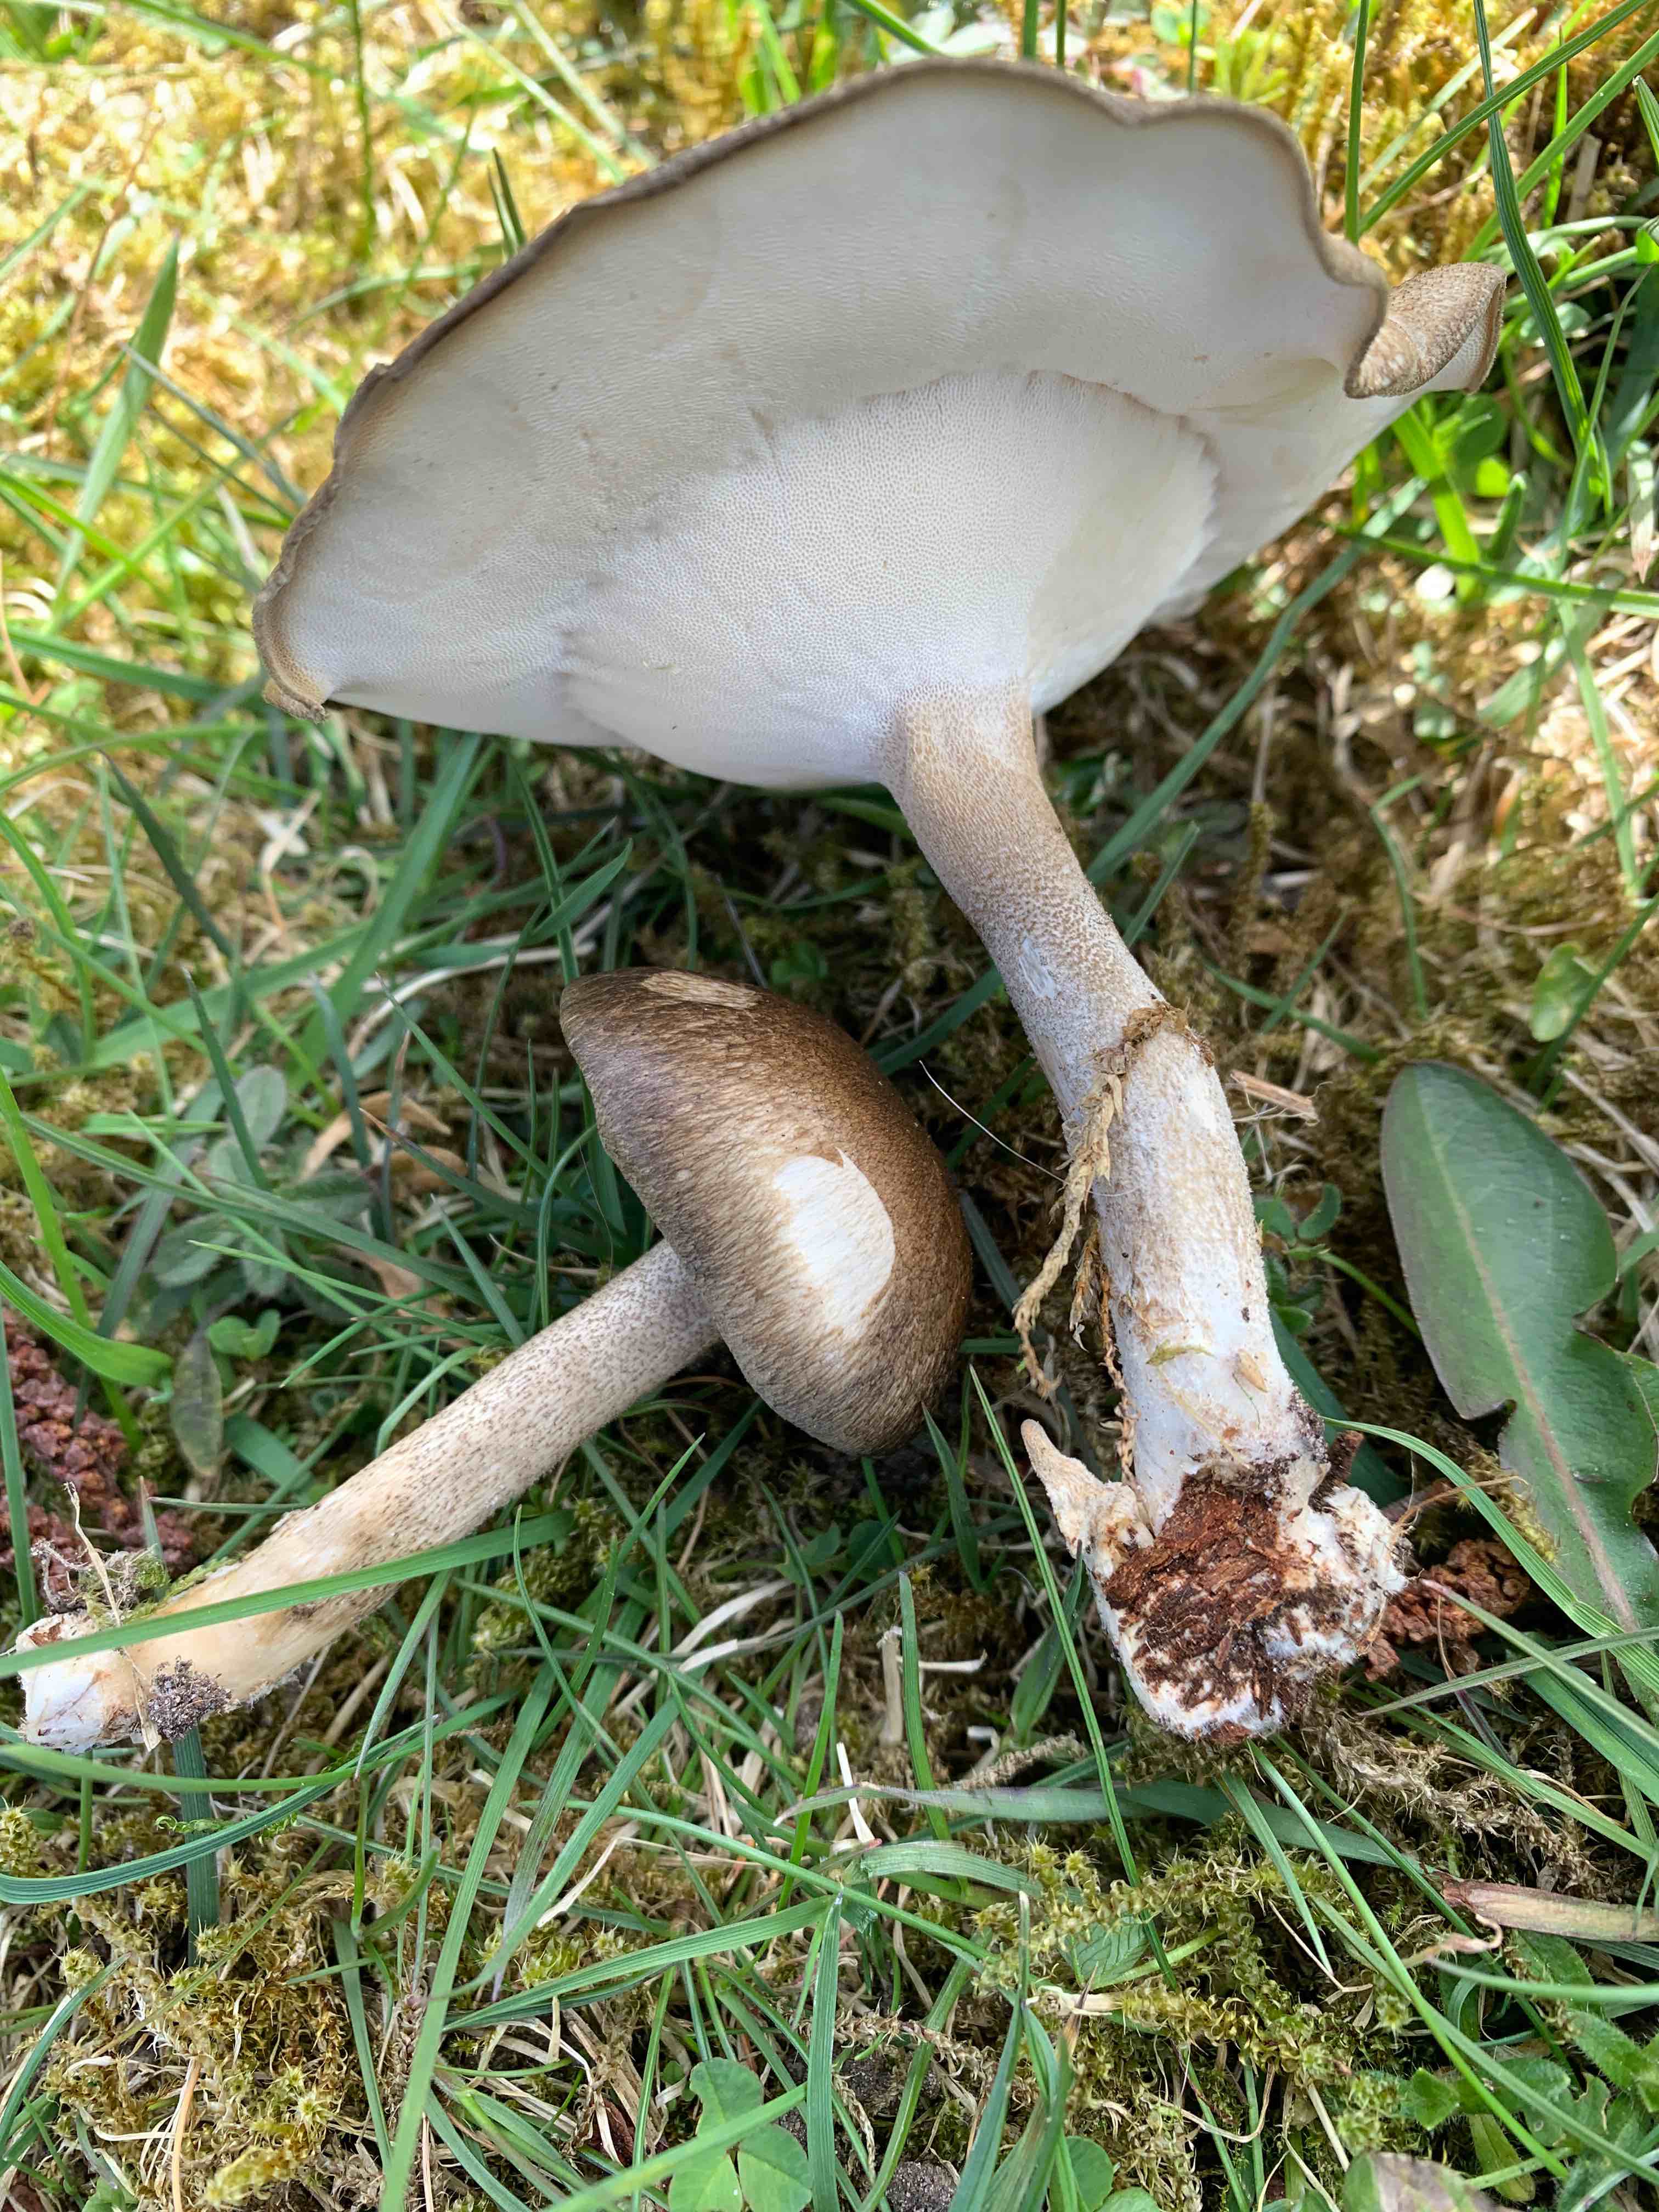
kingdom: Fungi
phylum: Basidiomycota
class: Agaricomycetes
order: Polyporales
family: Polyporaceae
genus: Lentinus
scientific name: Lentinus substrictus
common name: forårs-stilkporesvamp
